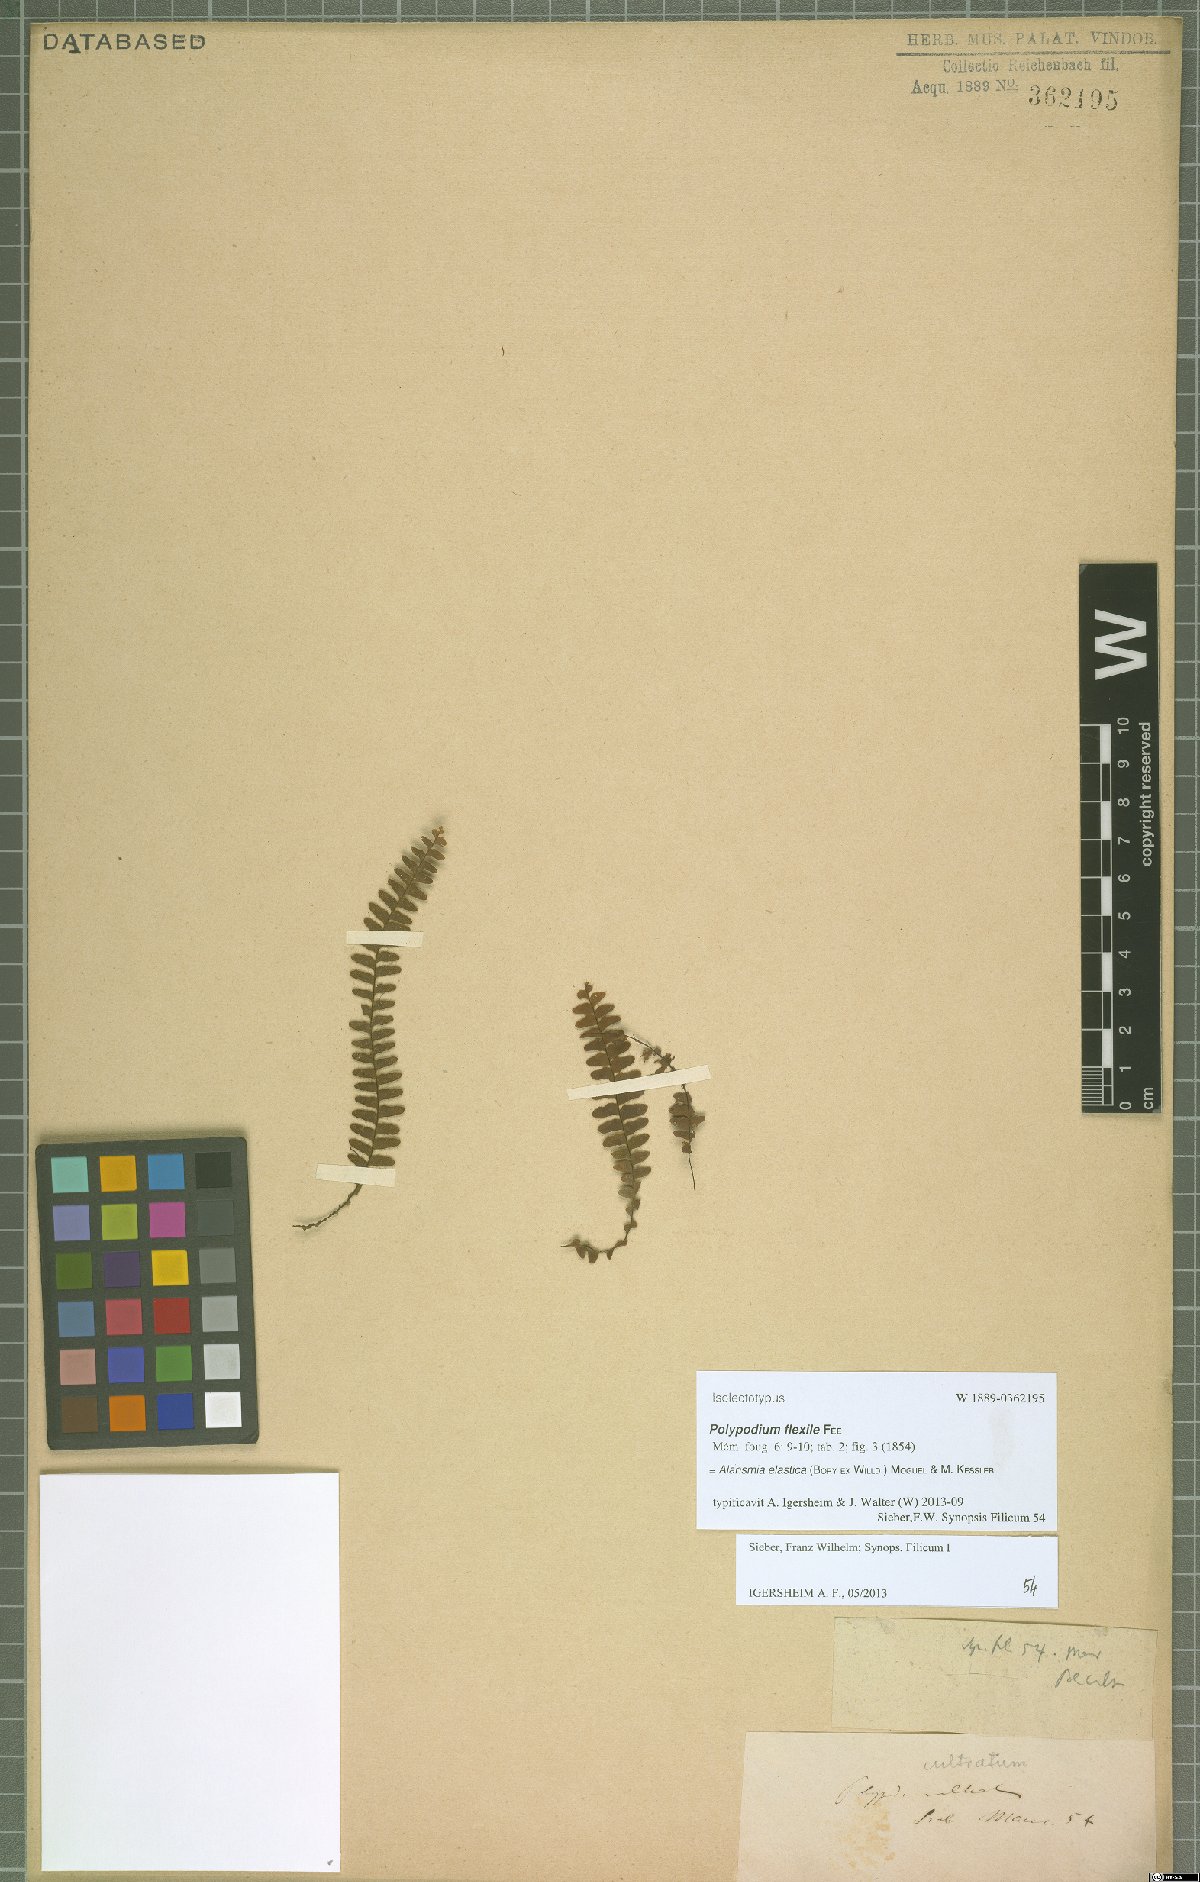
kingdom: Plantae
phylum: Tracheophyta
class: Polypodiopsida
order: Polypodiales
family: Polypodiaceae
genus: Alansmia
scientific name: Alansmia elastica
